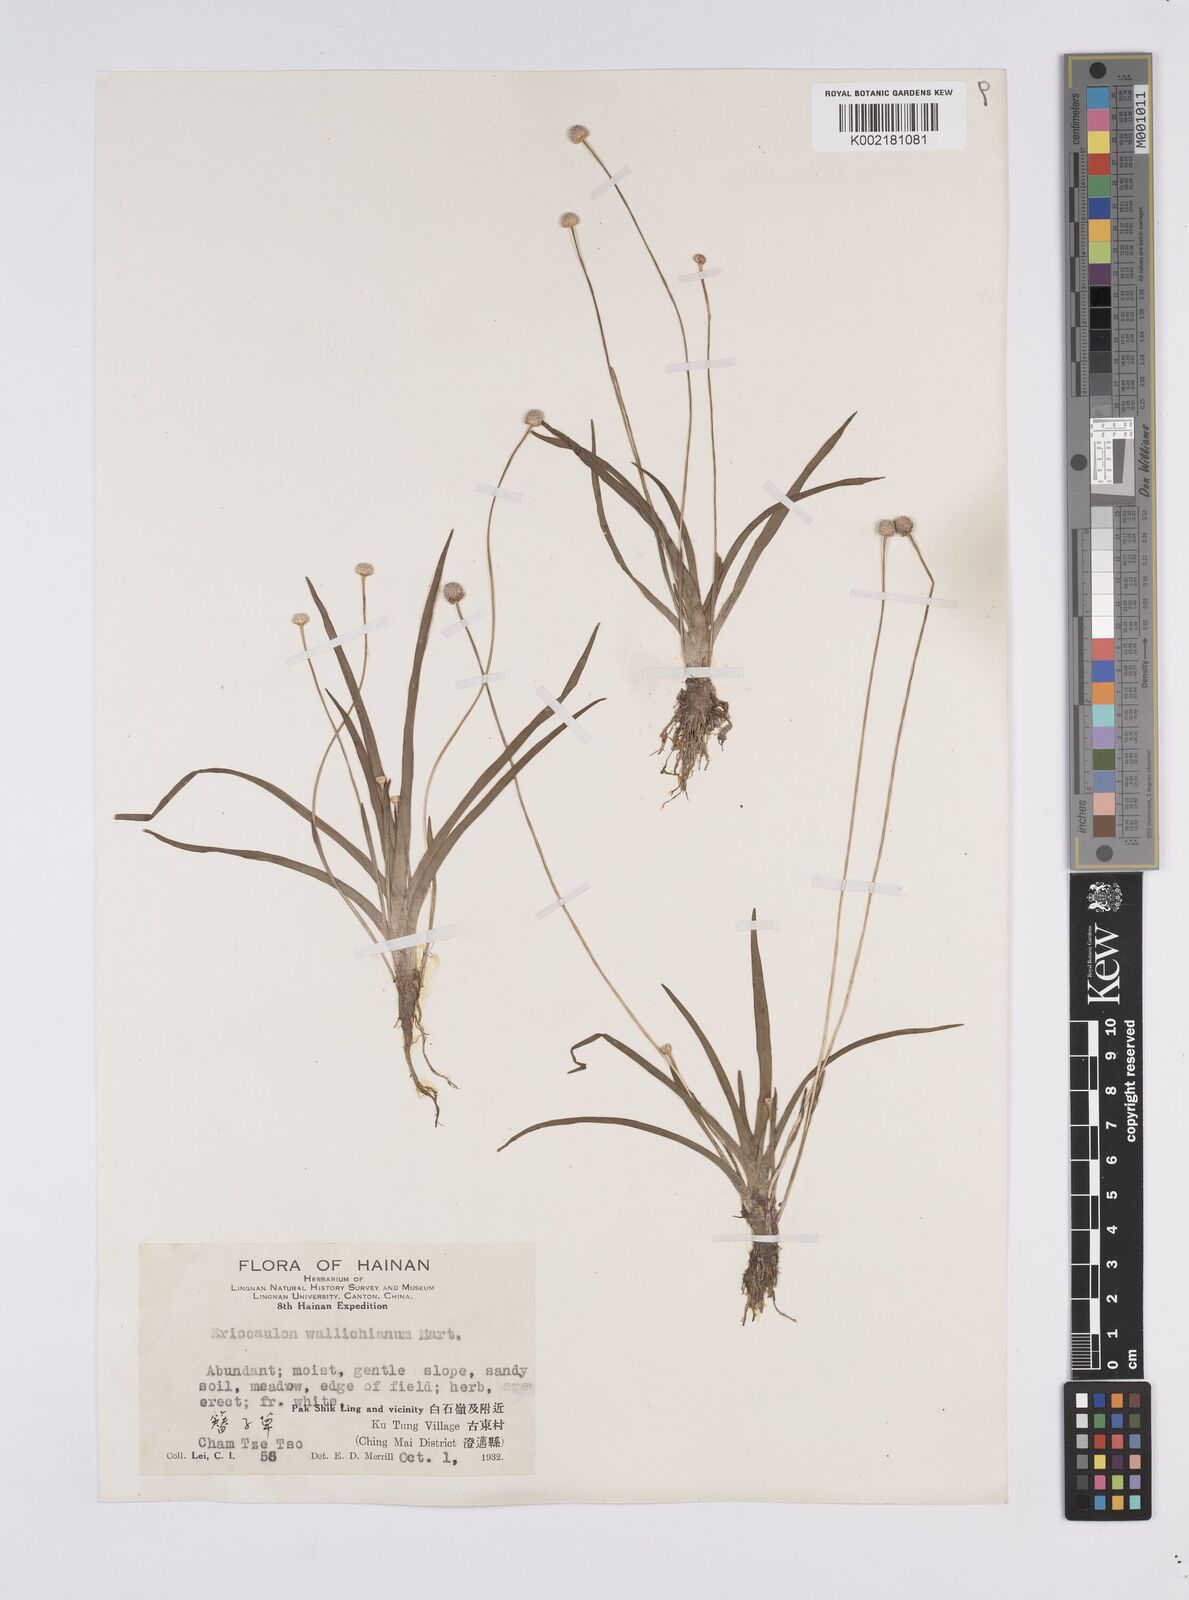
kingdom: Plantae
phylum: Tracheophyta
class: Liliopsida
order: Poales
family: Eriocaulaceae
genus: Eriocaulon
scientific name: Eriocaulon sexangulare
